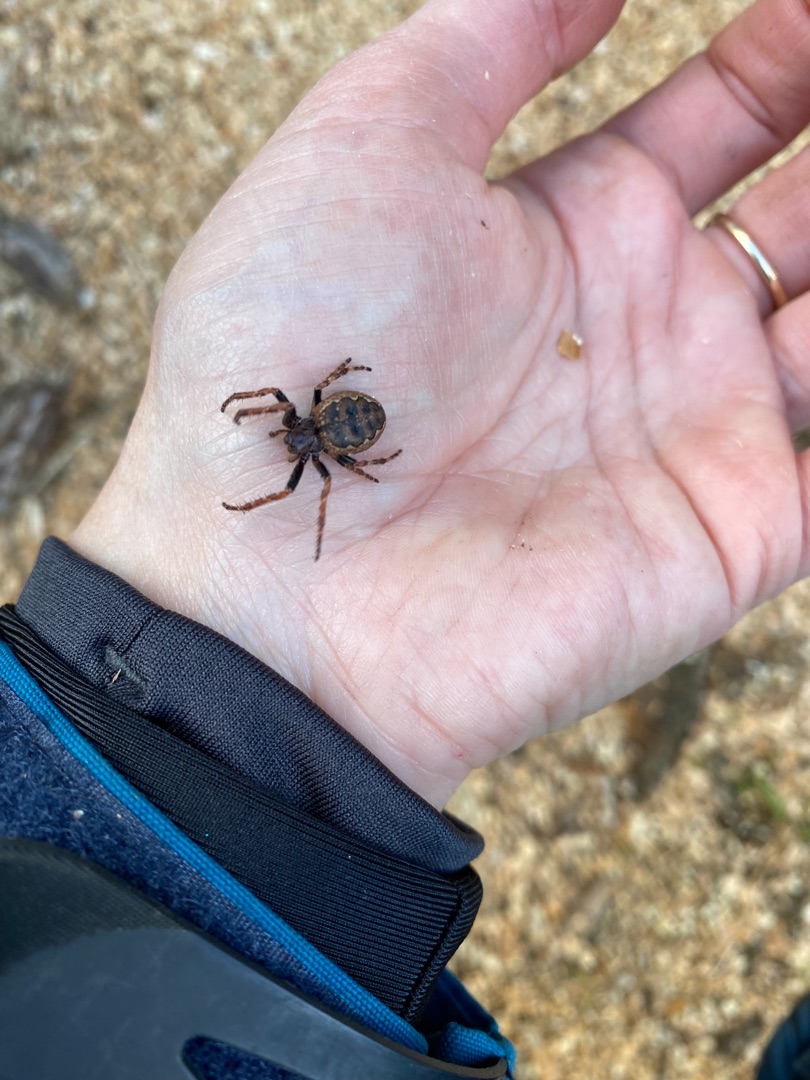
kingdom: Animalia
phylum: Arthropoda
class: Arachnida
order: Araneae
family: Araneidae
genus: Nuctenea
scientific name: Nuctenea umbratica
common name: Flad hjulspinder
